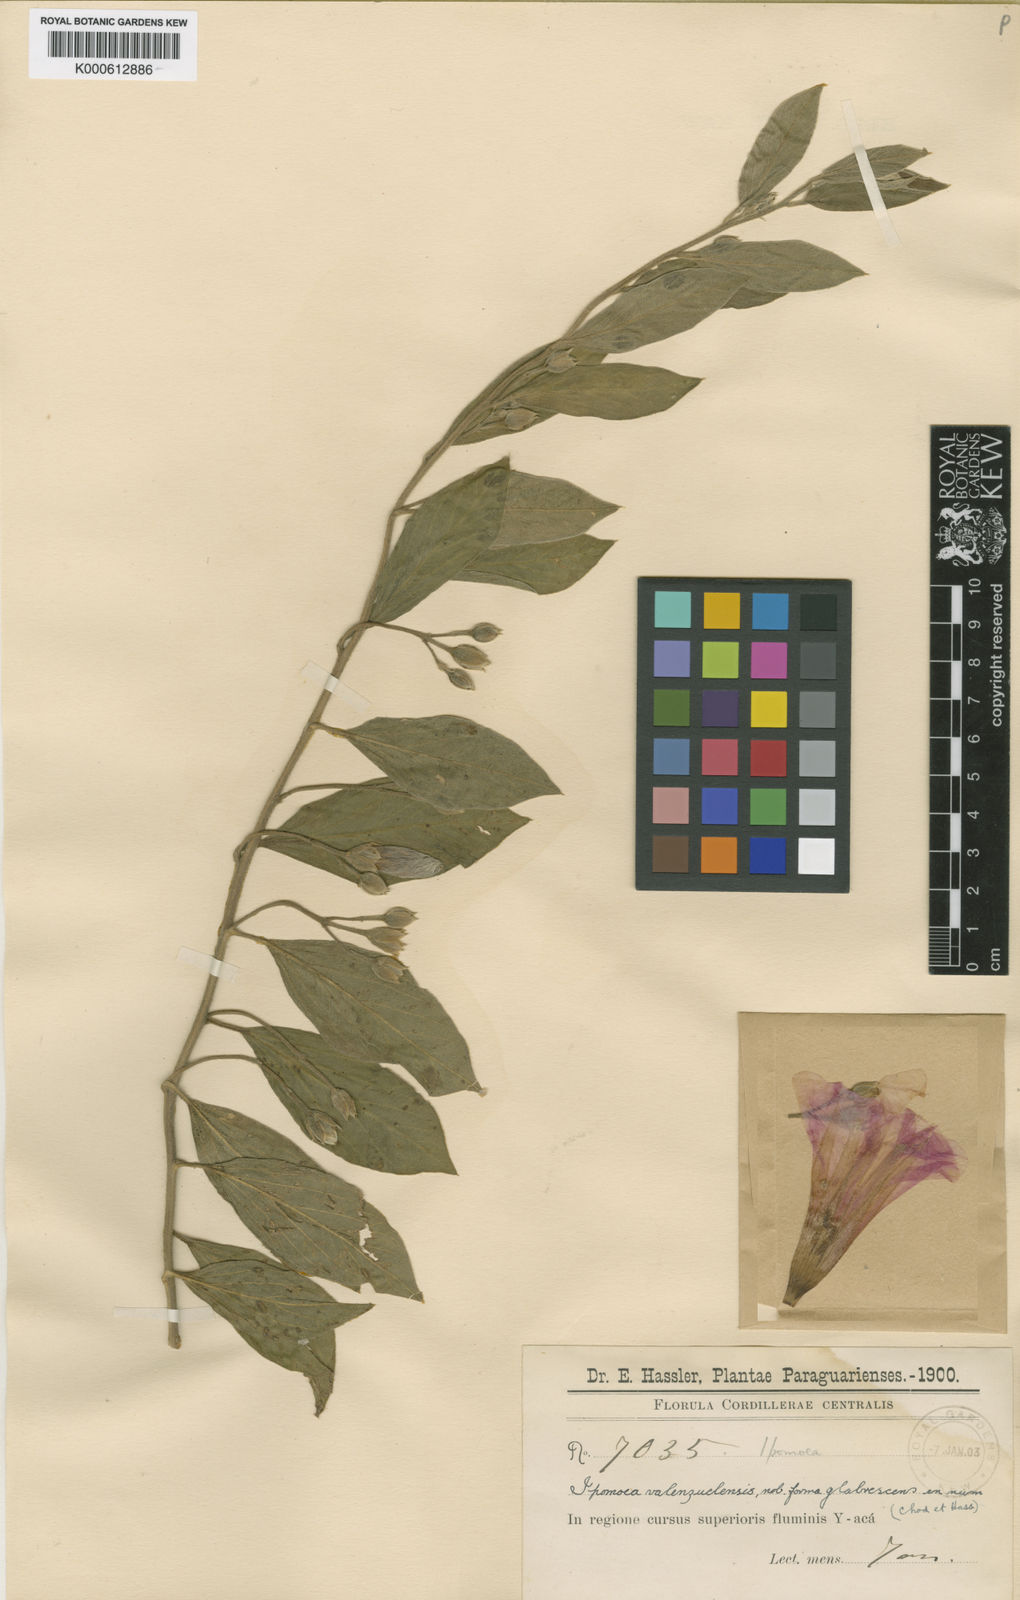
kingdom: Plantae
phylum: Tracheophyta
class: Magnoliopsida
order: Solanales
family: Convolvulaceae
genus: Ipomoea
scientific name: Ipomoea valenzuelensis
